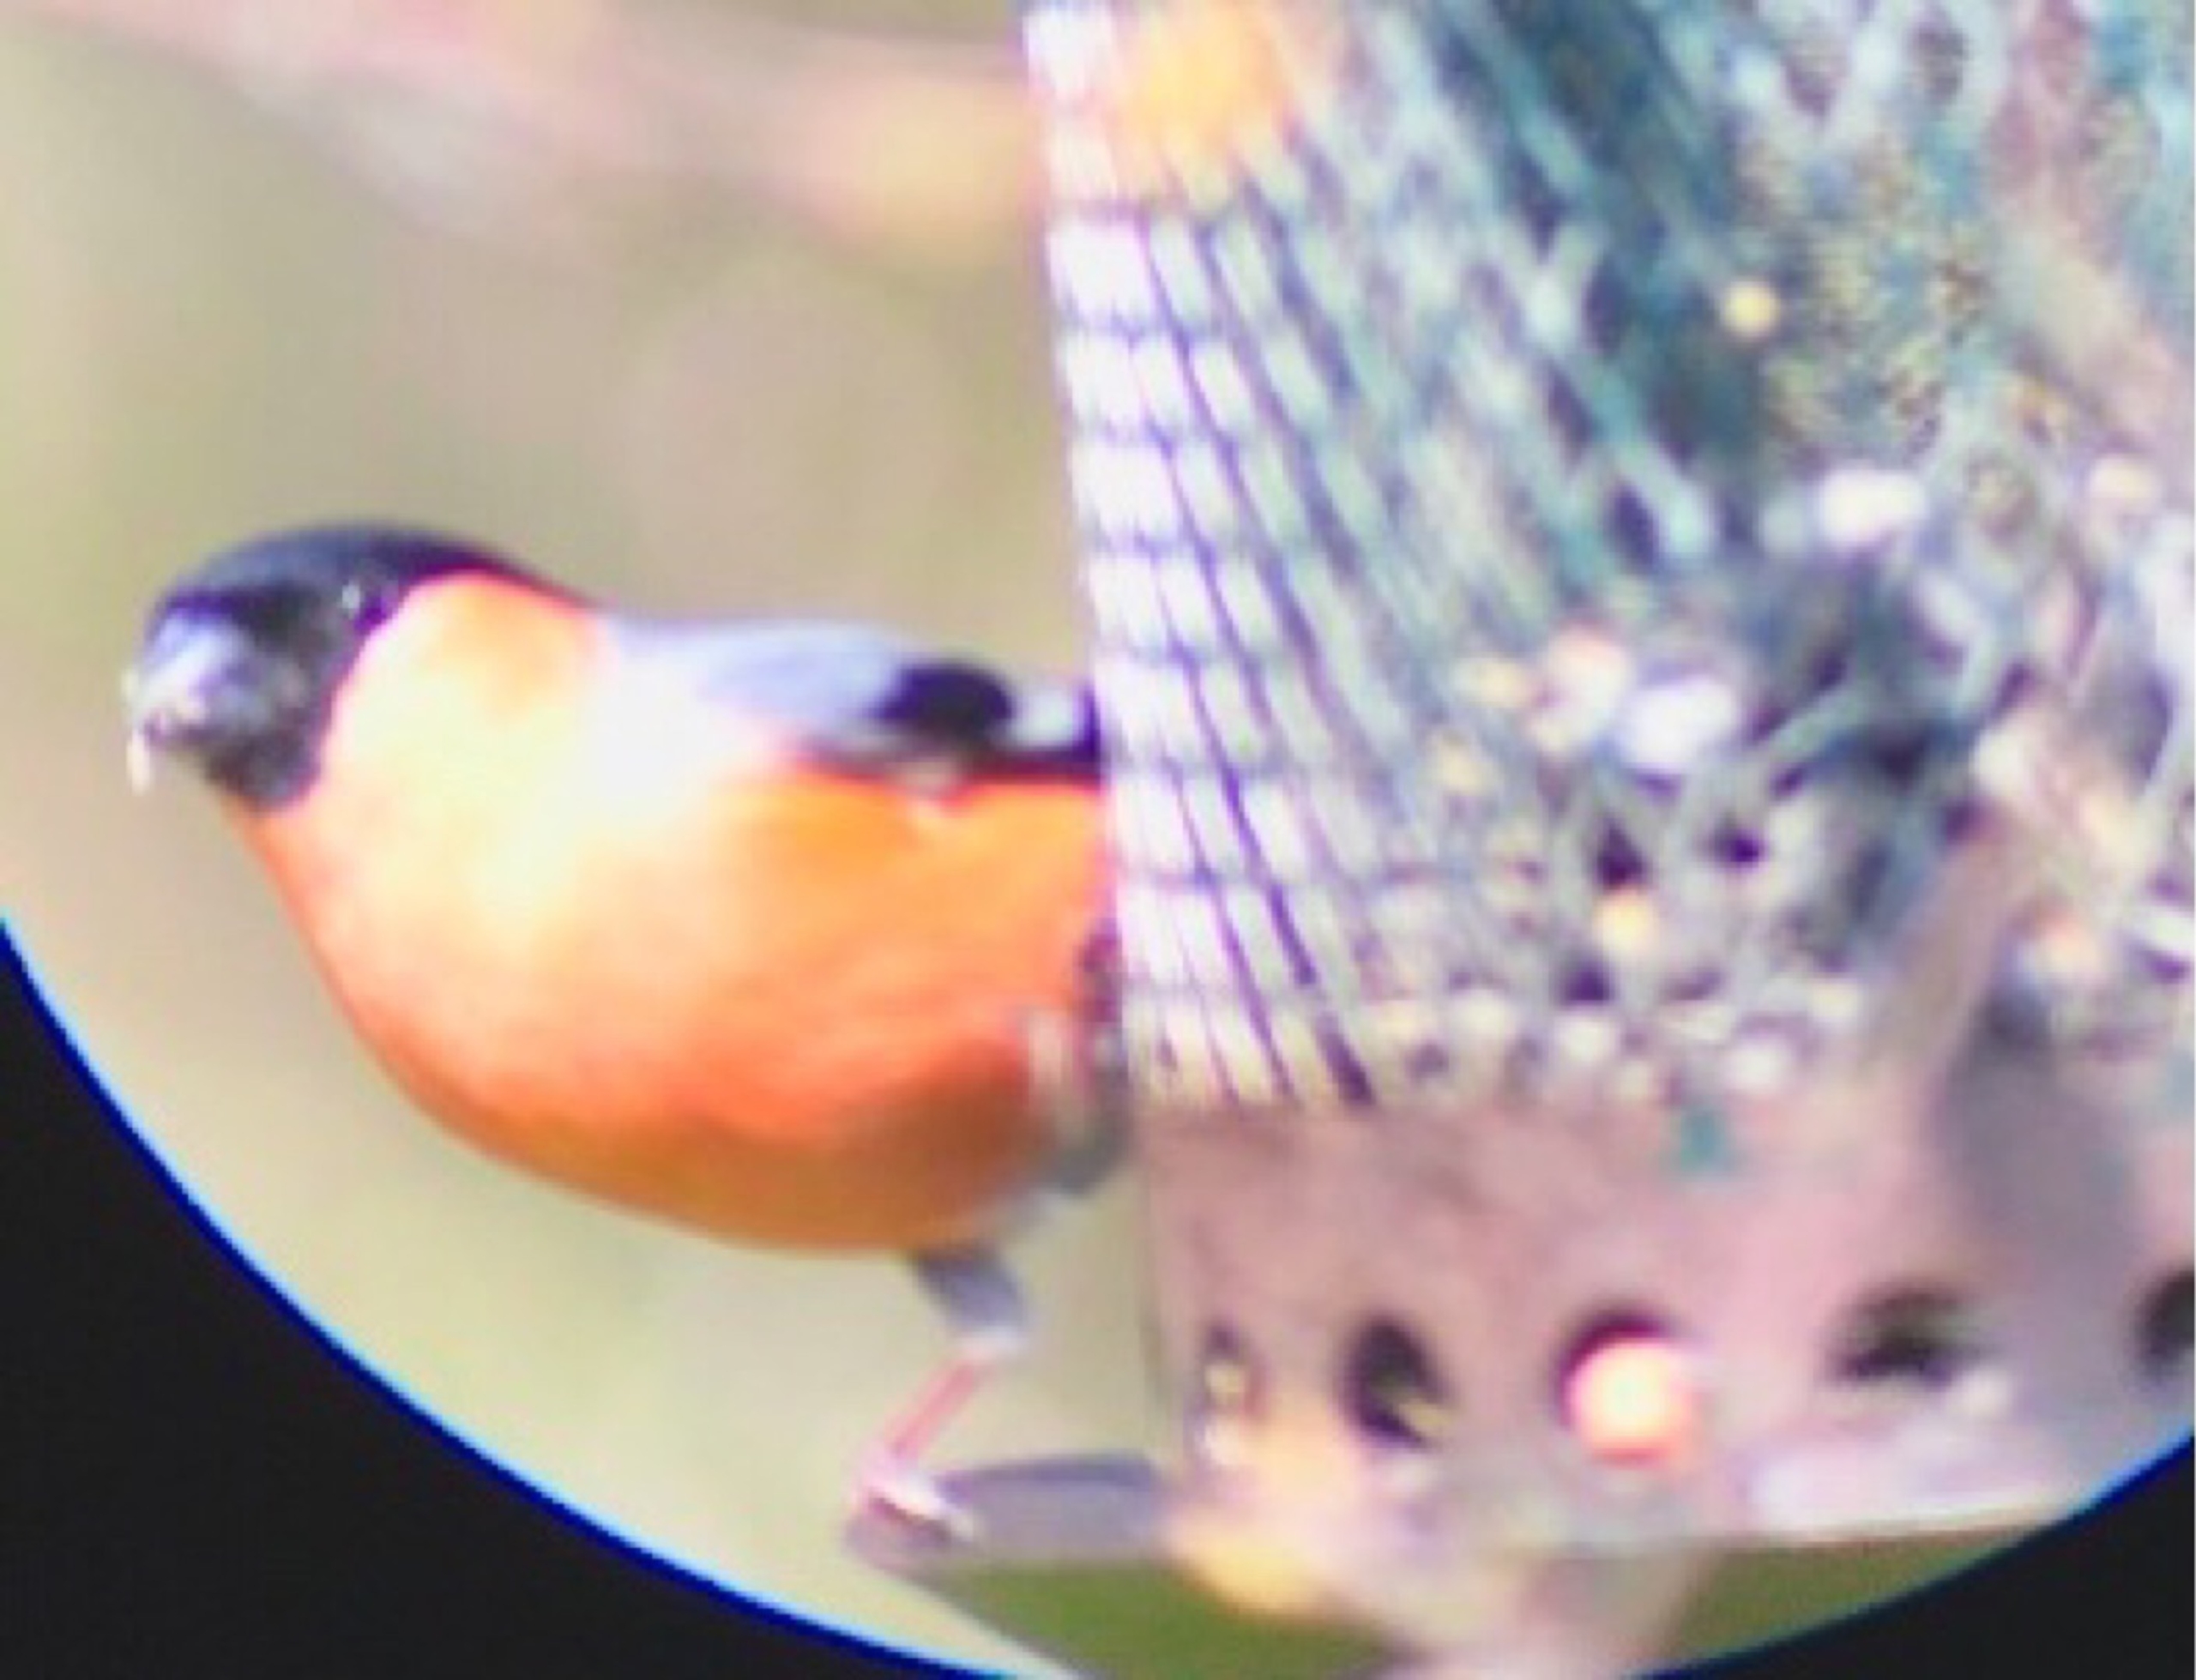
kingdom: Animalia
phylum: Chordata
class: Aves
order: Passeriformes
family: Fringillidae
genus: Pyrrhula
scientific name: Pyrrhula pyrrhula
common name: Dompap
